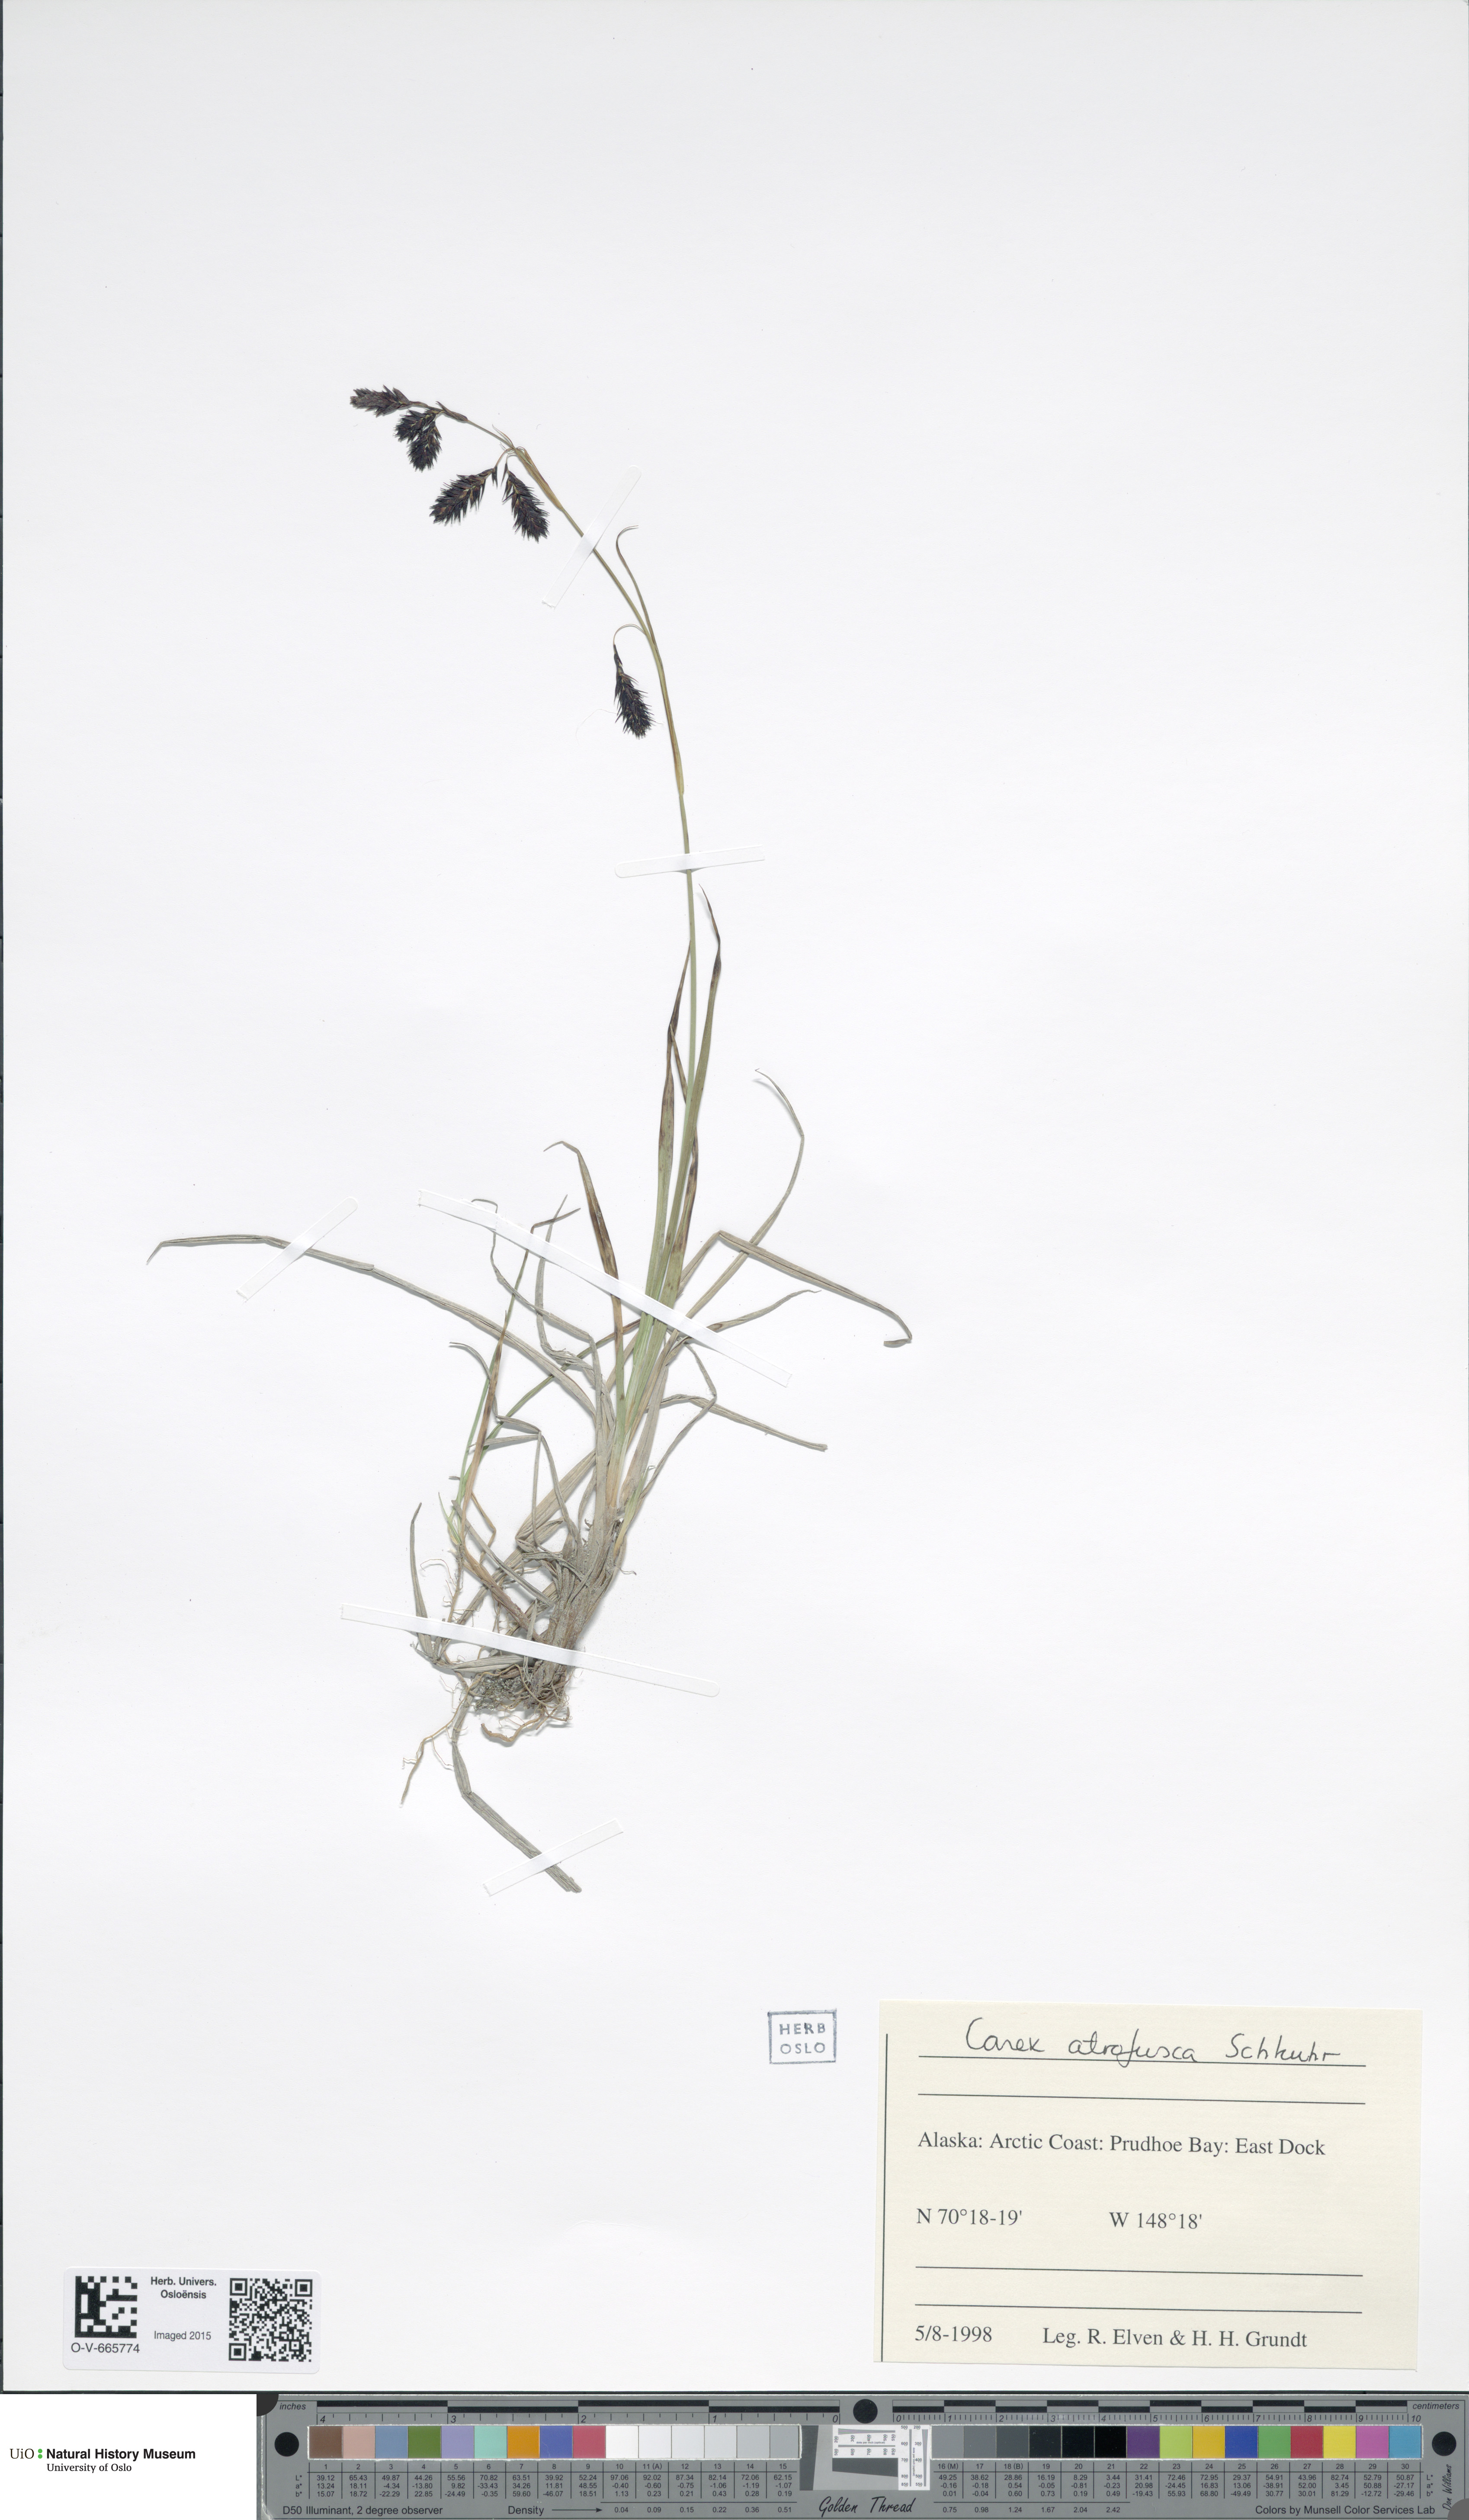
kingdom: Plantae
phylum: Tracheophyta
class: Liliopsida
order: Poales
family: Cyperaceae
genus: Carex
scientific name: Carex atrofusca
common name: Scorched alpine-sedge
